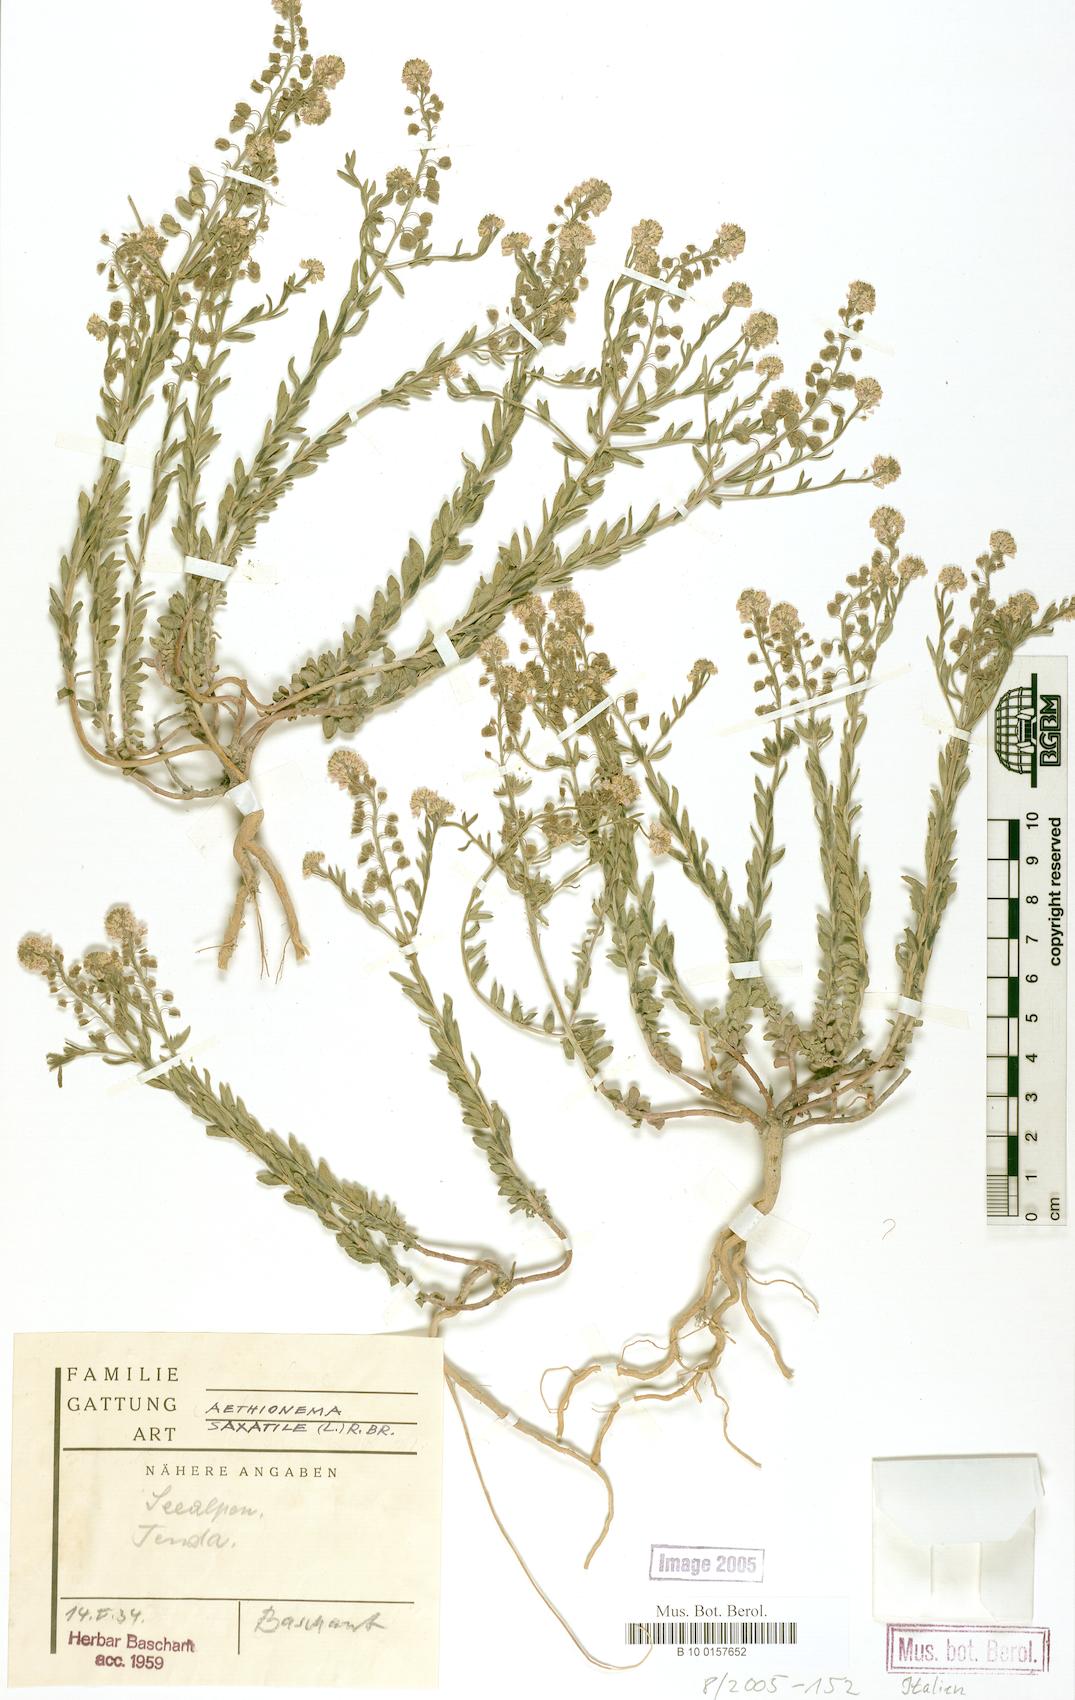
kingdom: Plantae
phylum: Tracheophyta
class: Magnoliopsida
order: Brassicales
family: Brassicaceae
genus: Aethionema
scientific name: Aethionema saxatile
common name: Burnt candytuft
